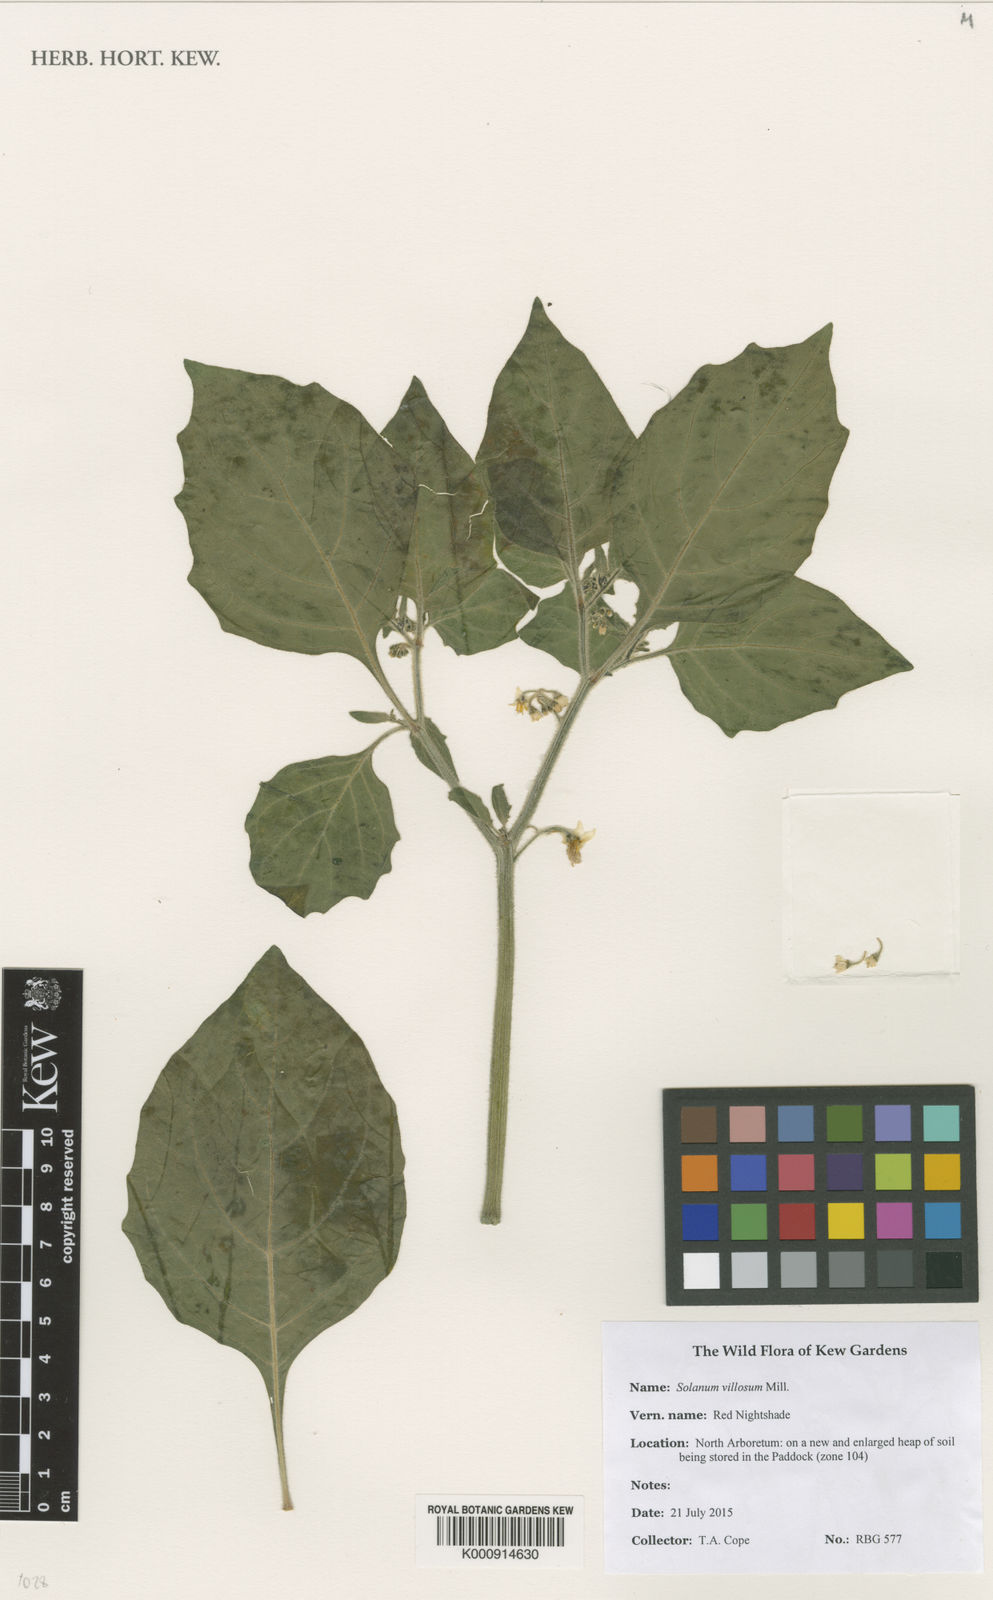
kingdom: Plantae
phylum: Tracheophyta
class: Magnoliopsida
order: Solanales
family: Solanaceae
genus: Solanum
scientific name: Solanum villosum
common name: Red nightshade
